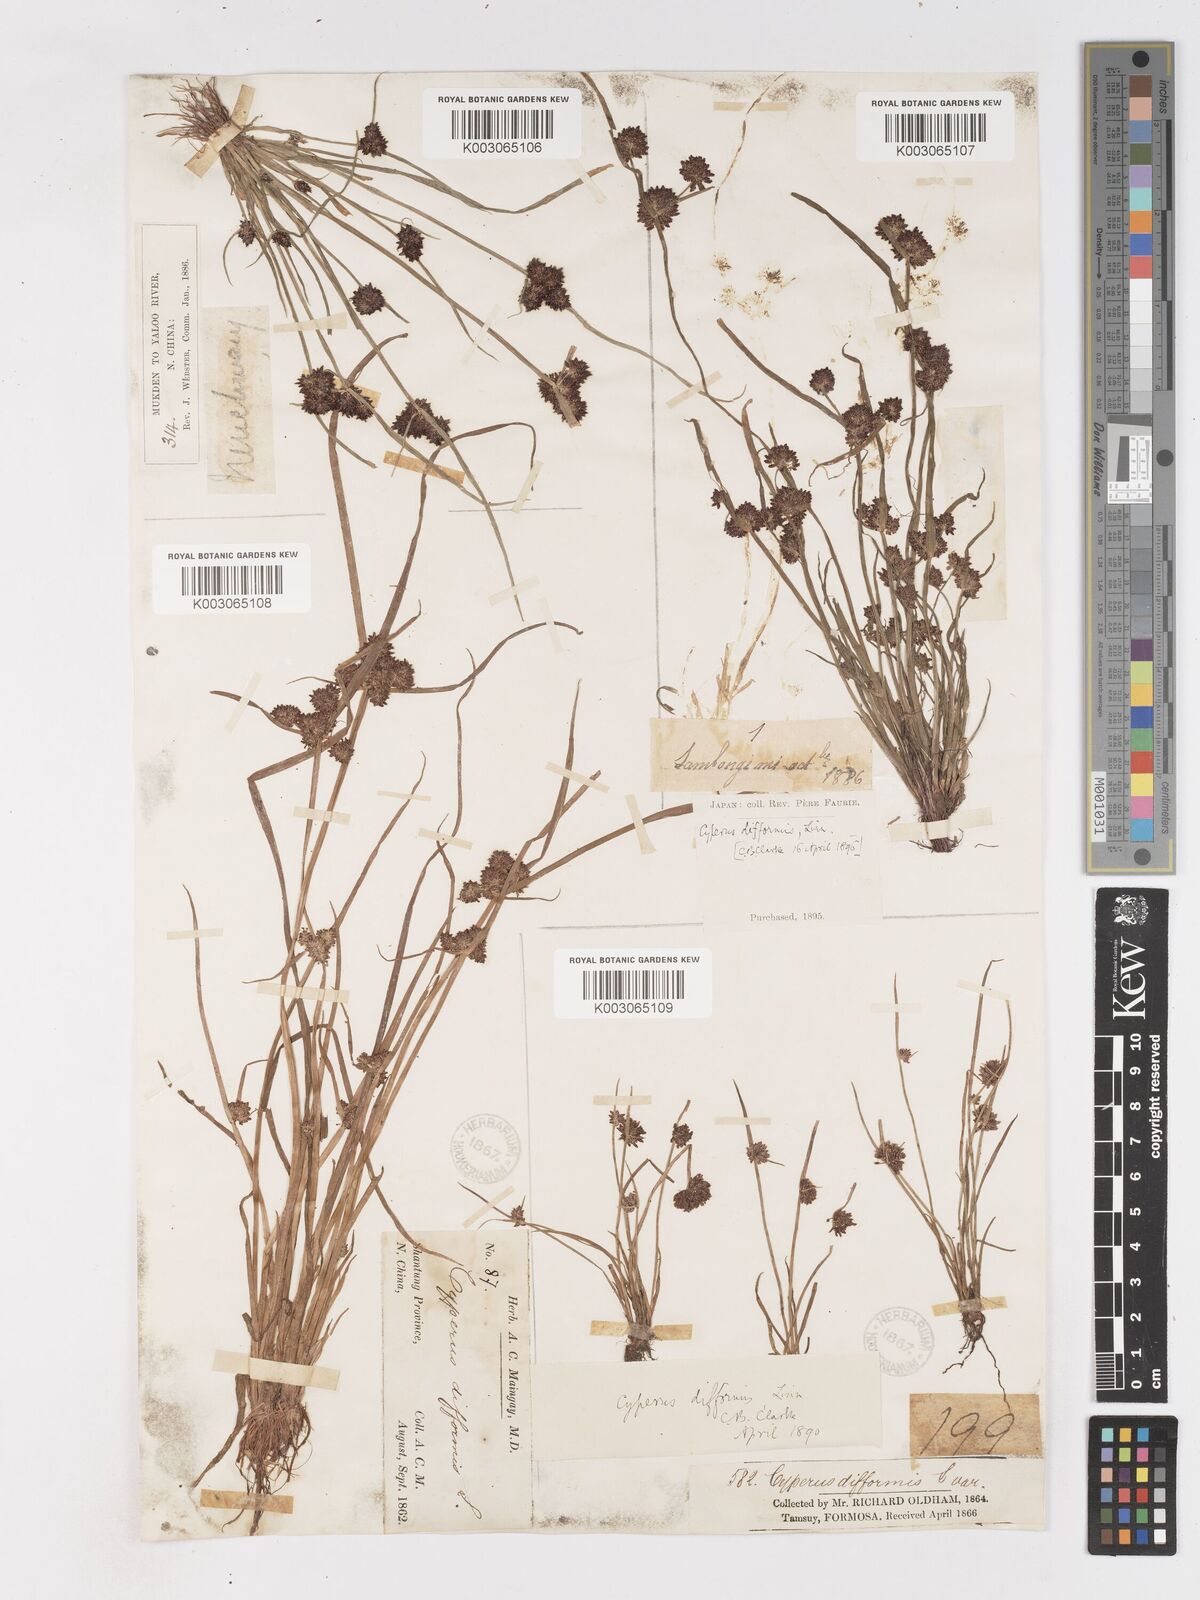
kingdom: Plantae
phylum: Tracheophyta
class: Liliopsida
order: Poales
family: Cyperaceae
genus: Cyperus
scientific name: Cyperus difformis
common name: Variable flatsedge
